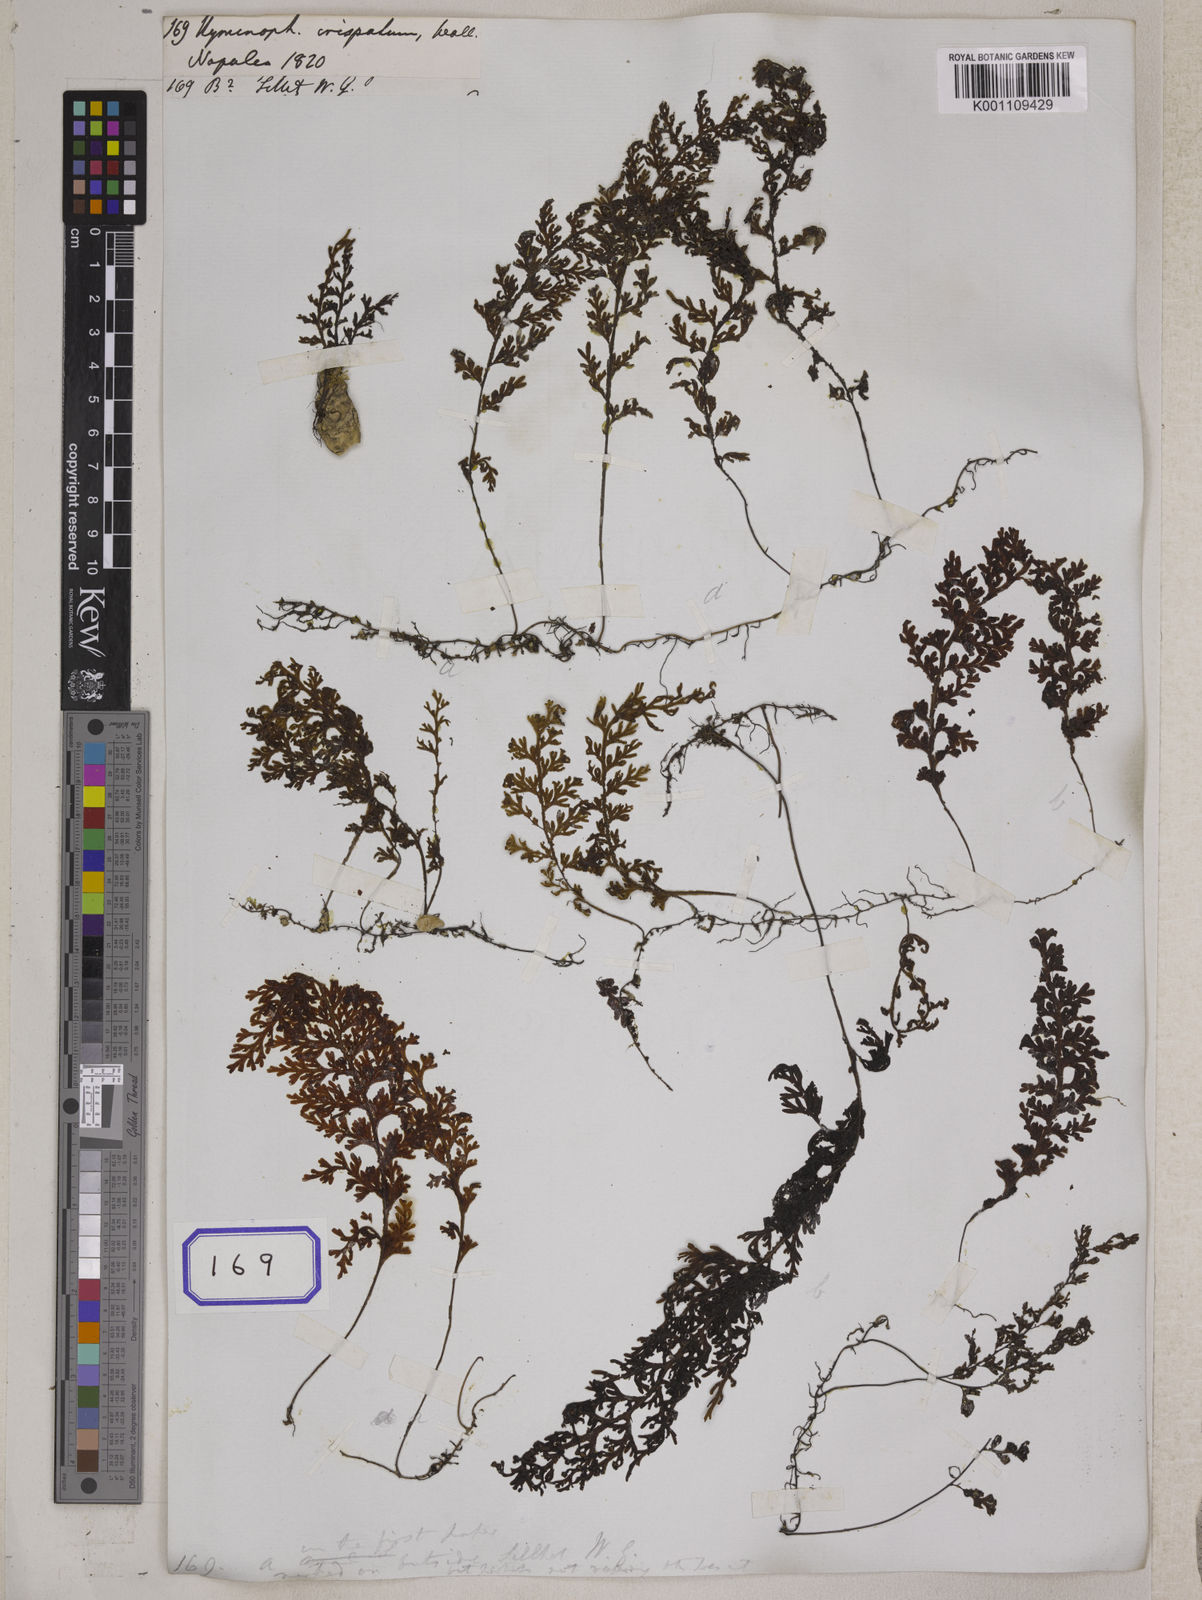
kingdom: Plantae
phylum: Tracheophyta
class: Polypodiopsida
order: Hymenophyllales
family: Hymenophyllaceae
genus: Hymenophyllum
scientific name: Hymenophyllum
